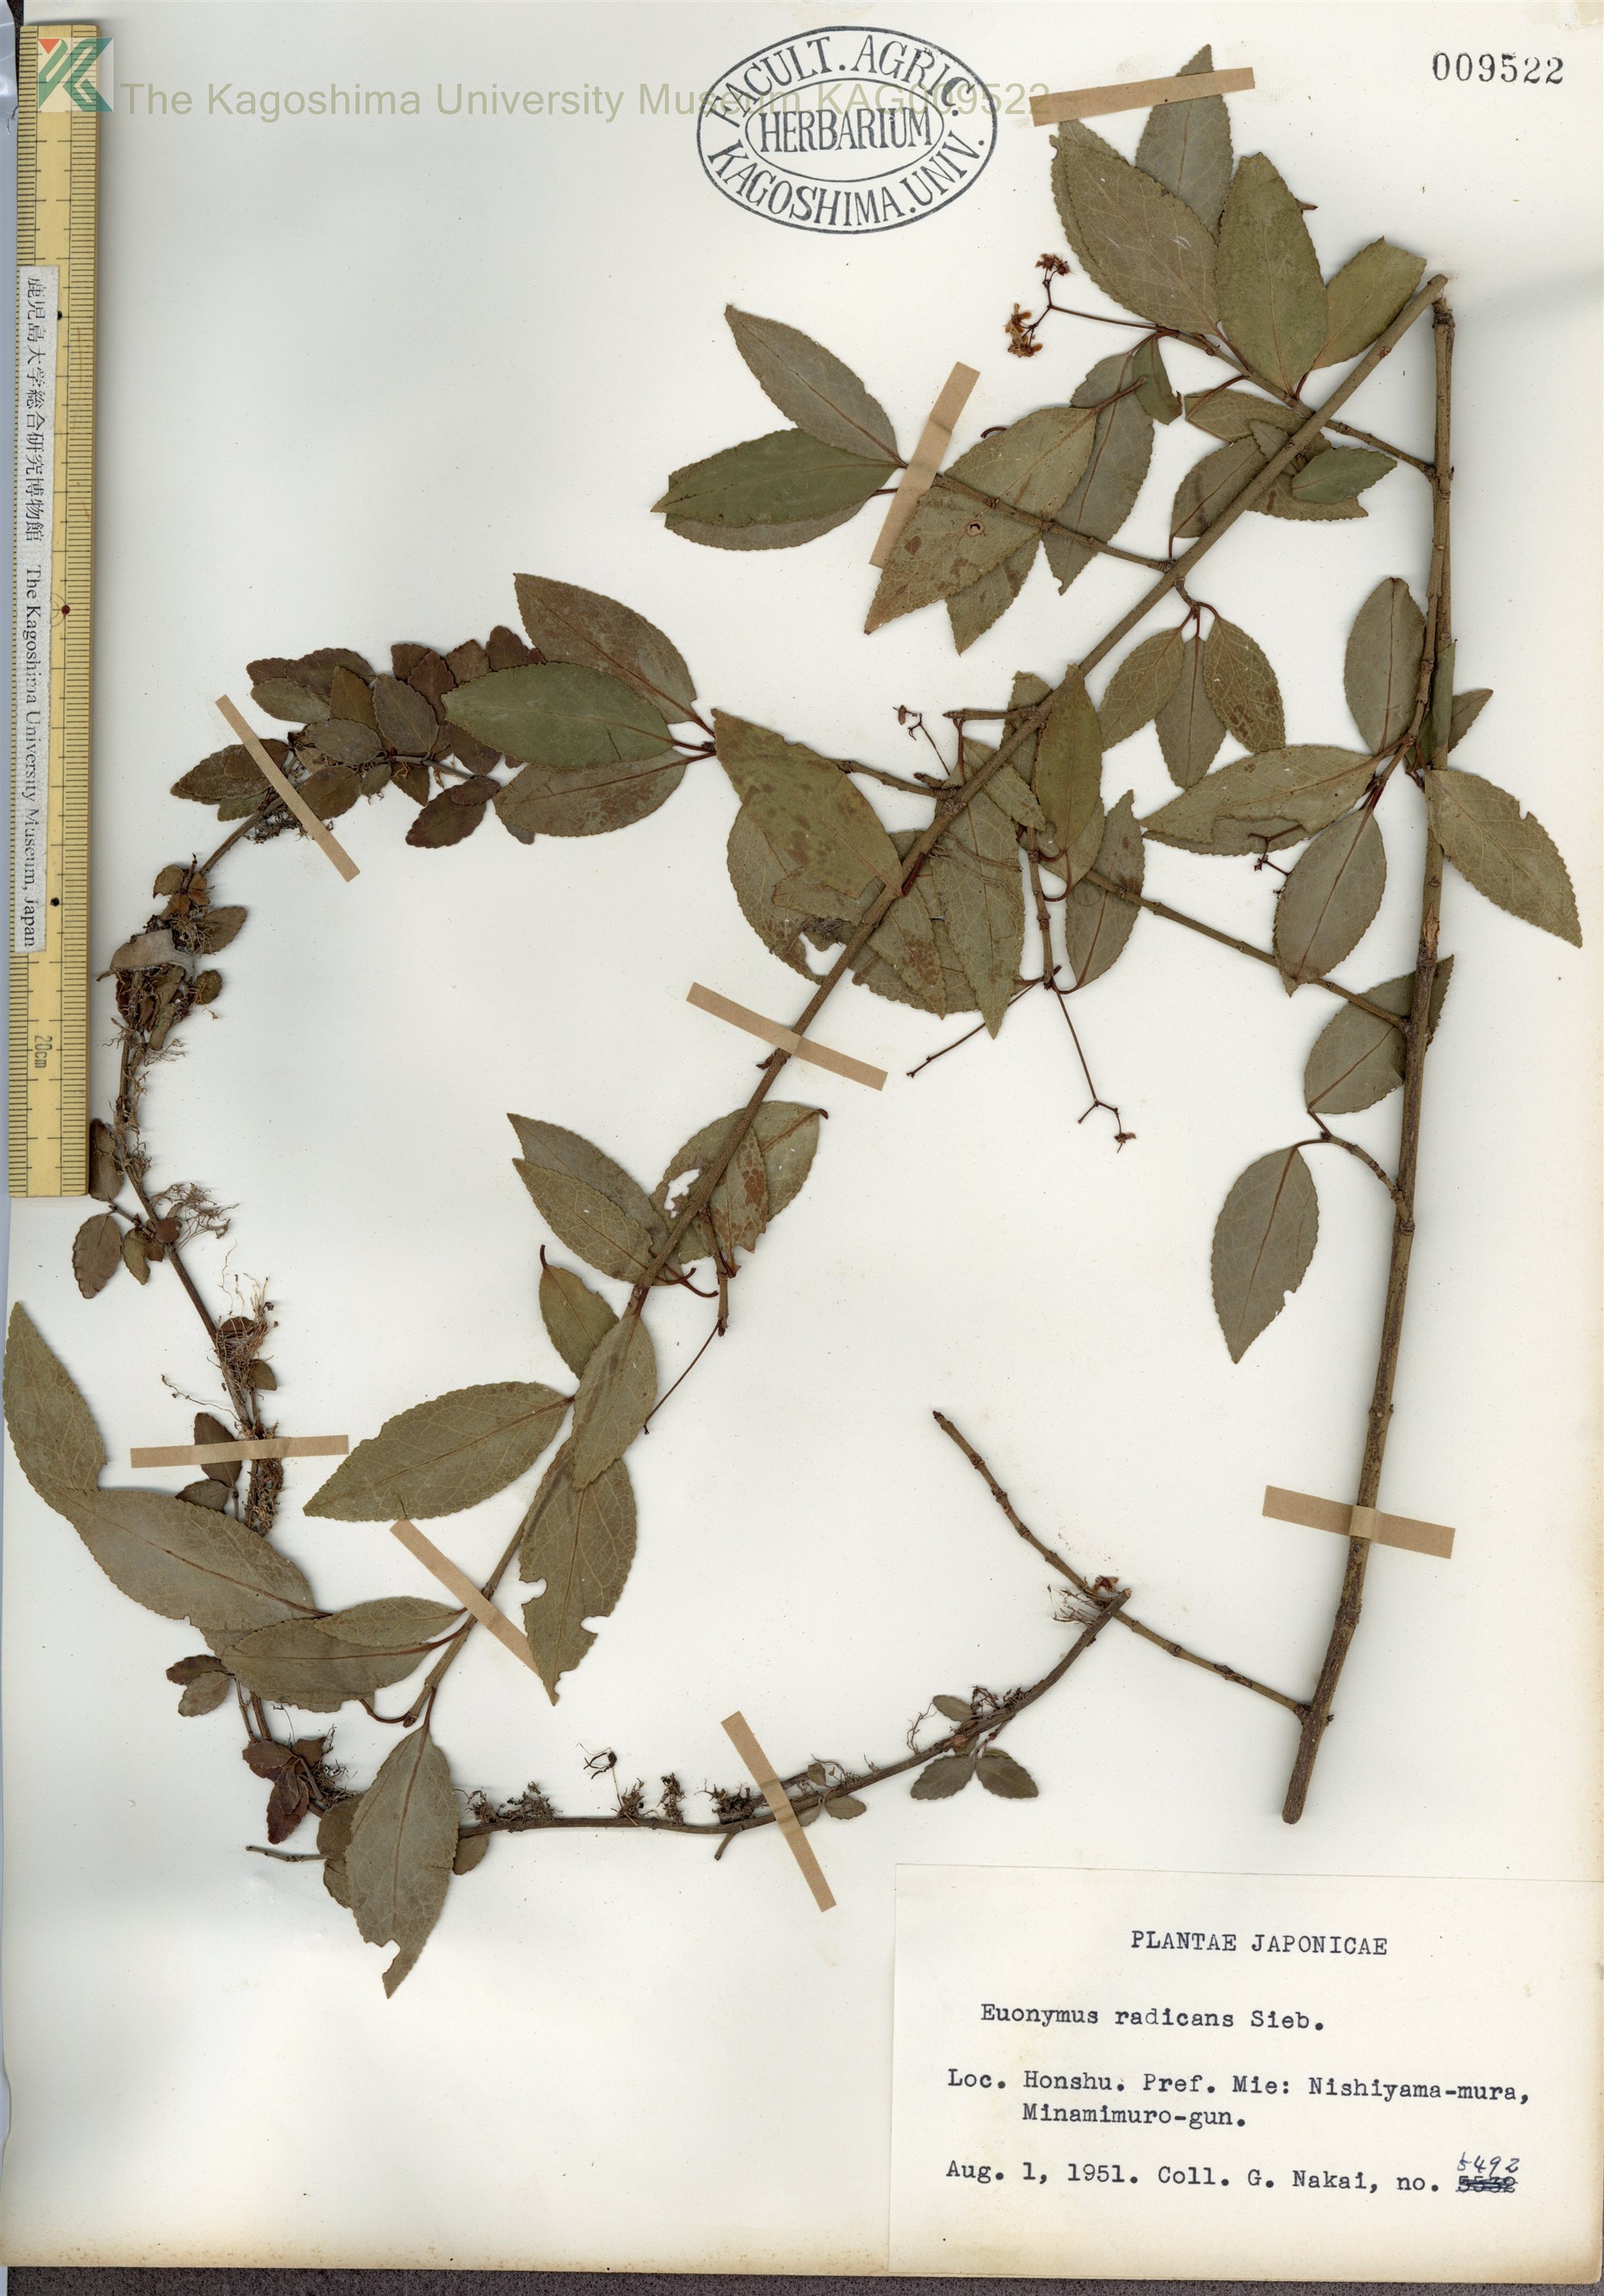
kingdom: Plantae
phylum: Tracheophyta
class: Magnoliopsida
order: Celastrales
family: Celastraceae
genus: Euonymus
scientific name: Euonymus fortunei
